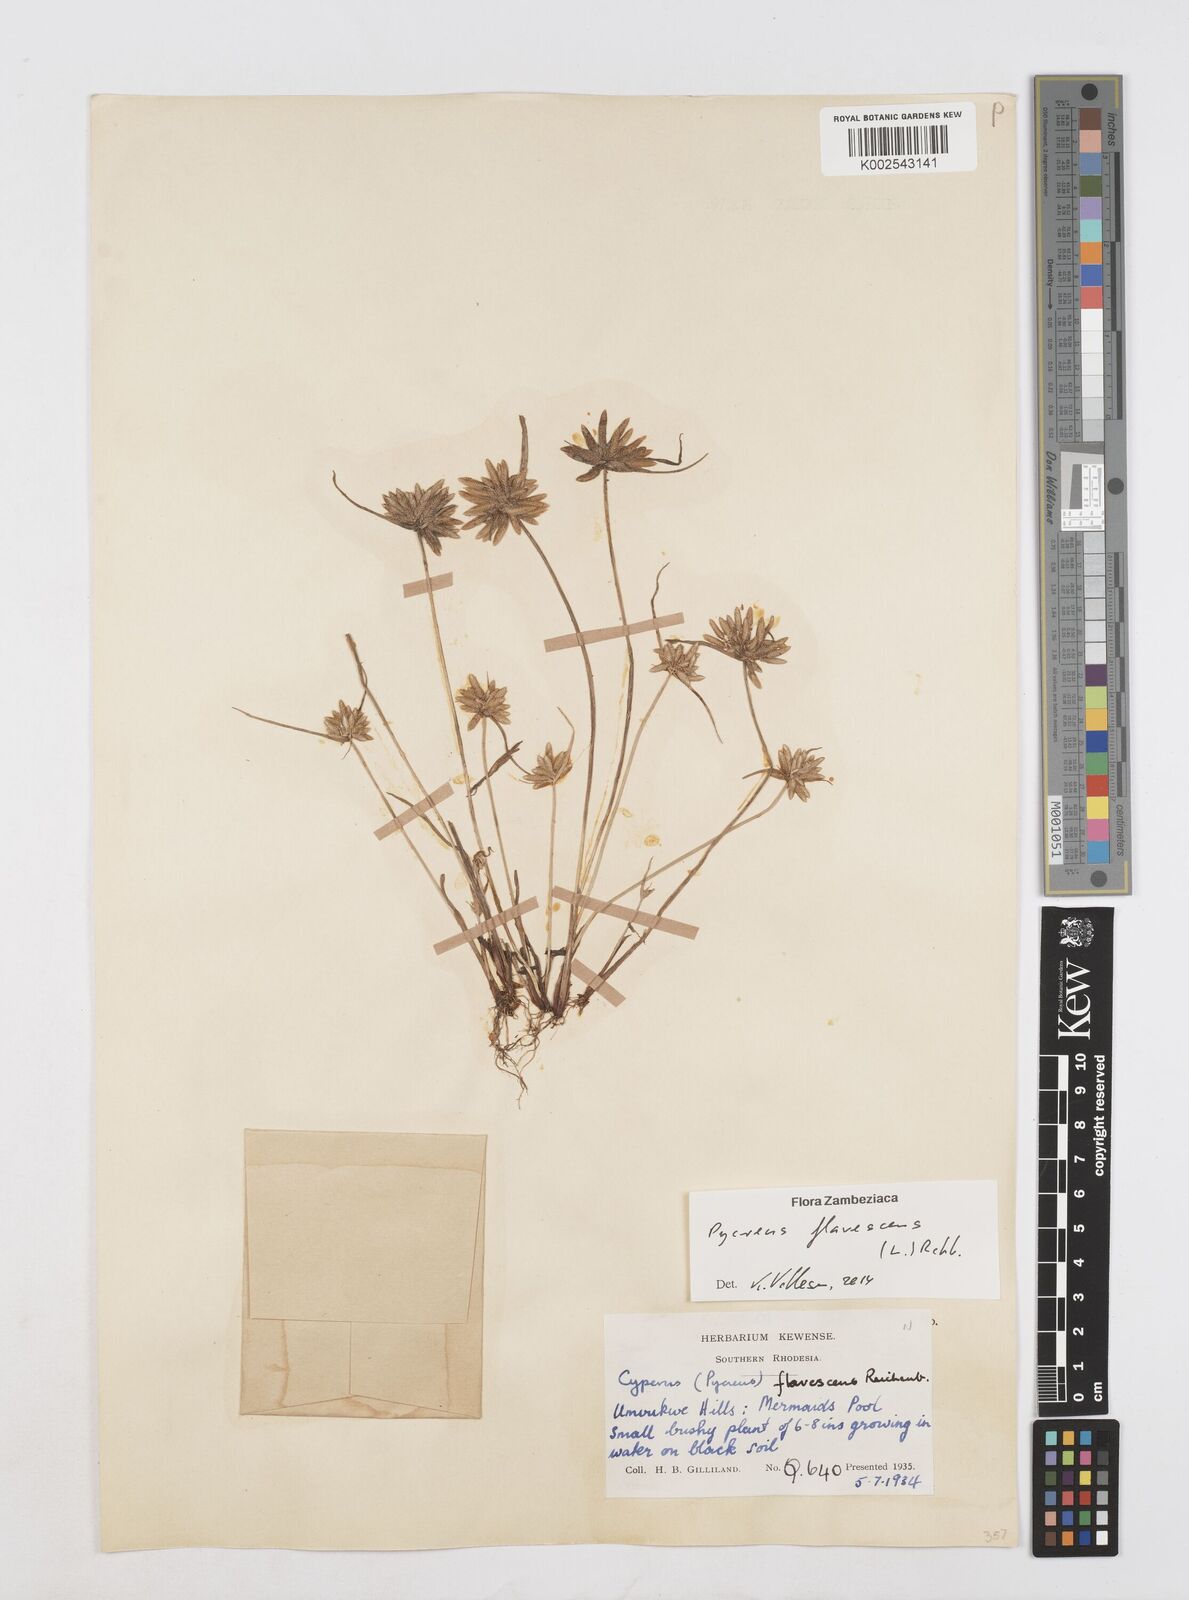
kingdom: Plantae
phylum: Tracheophyta
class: Liliopsida
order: Poales
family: Cyperaceae
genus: Cyperus
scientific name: Cyperus flavescens
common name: Yellow galingale
